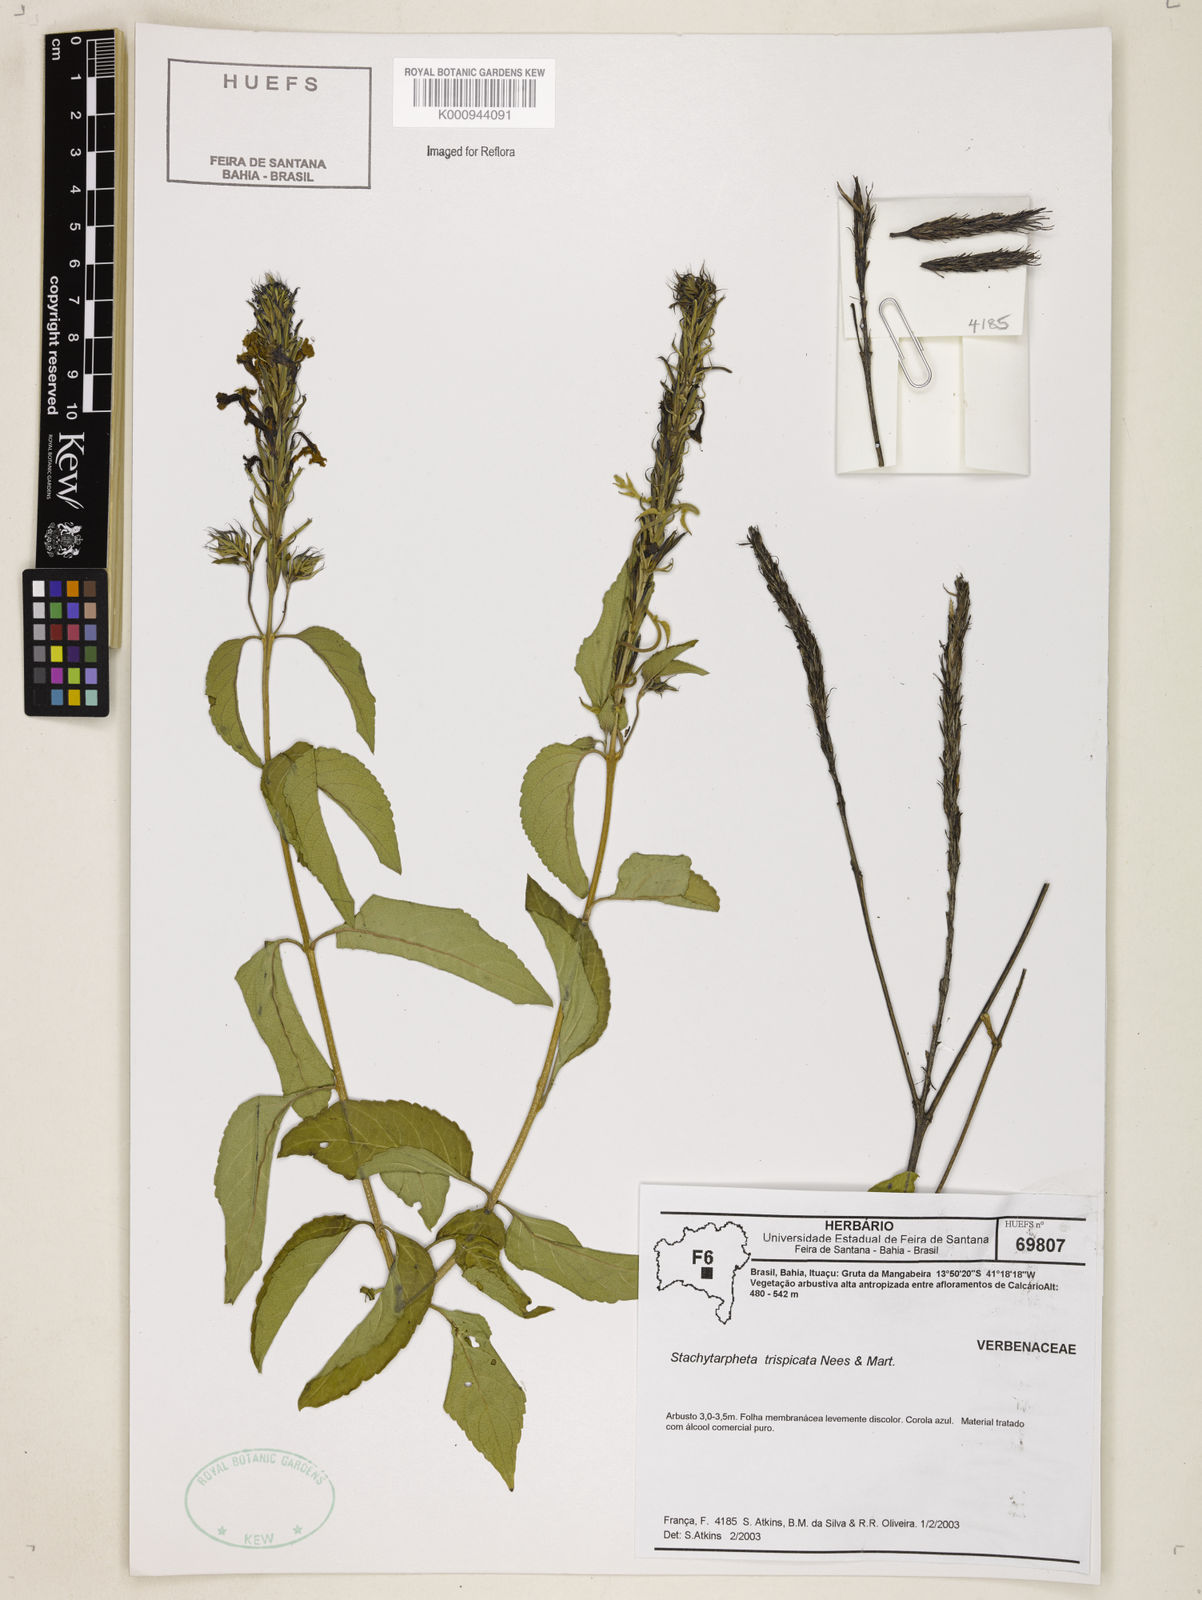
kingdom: Plantae
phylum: Tracheophyta
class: Magnoliopsida
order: Lamiales
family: Verbenaceae
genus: Stachytarpheta
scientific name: Stachytarpheta trispicata
